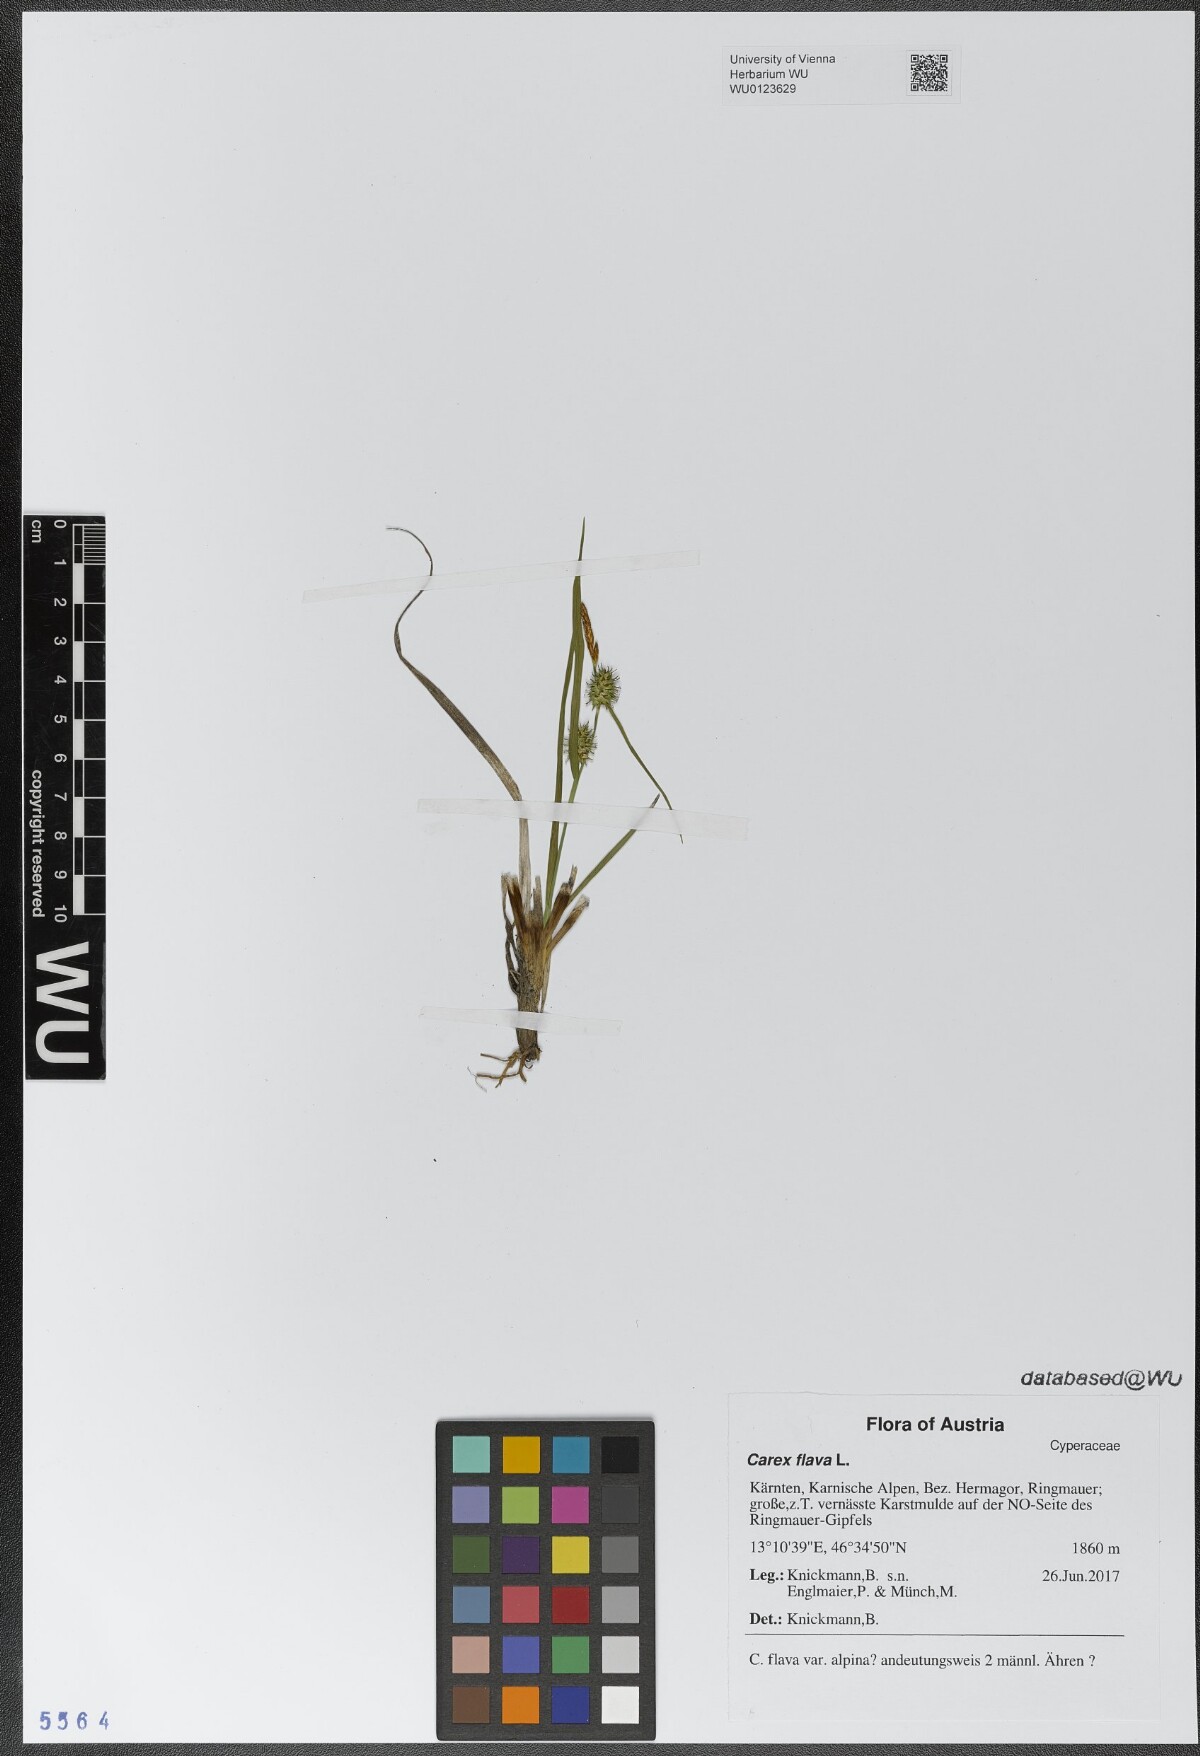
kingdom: Plantae
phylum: Tracheophyta
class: Liliopsida
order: Poales
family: Cyperaceae
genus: Carex
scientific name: Carex flava
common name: Large yellow-sedge
